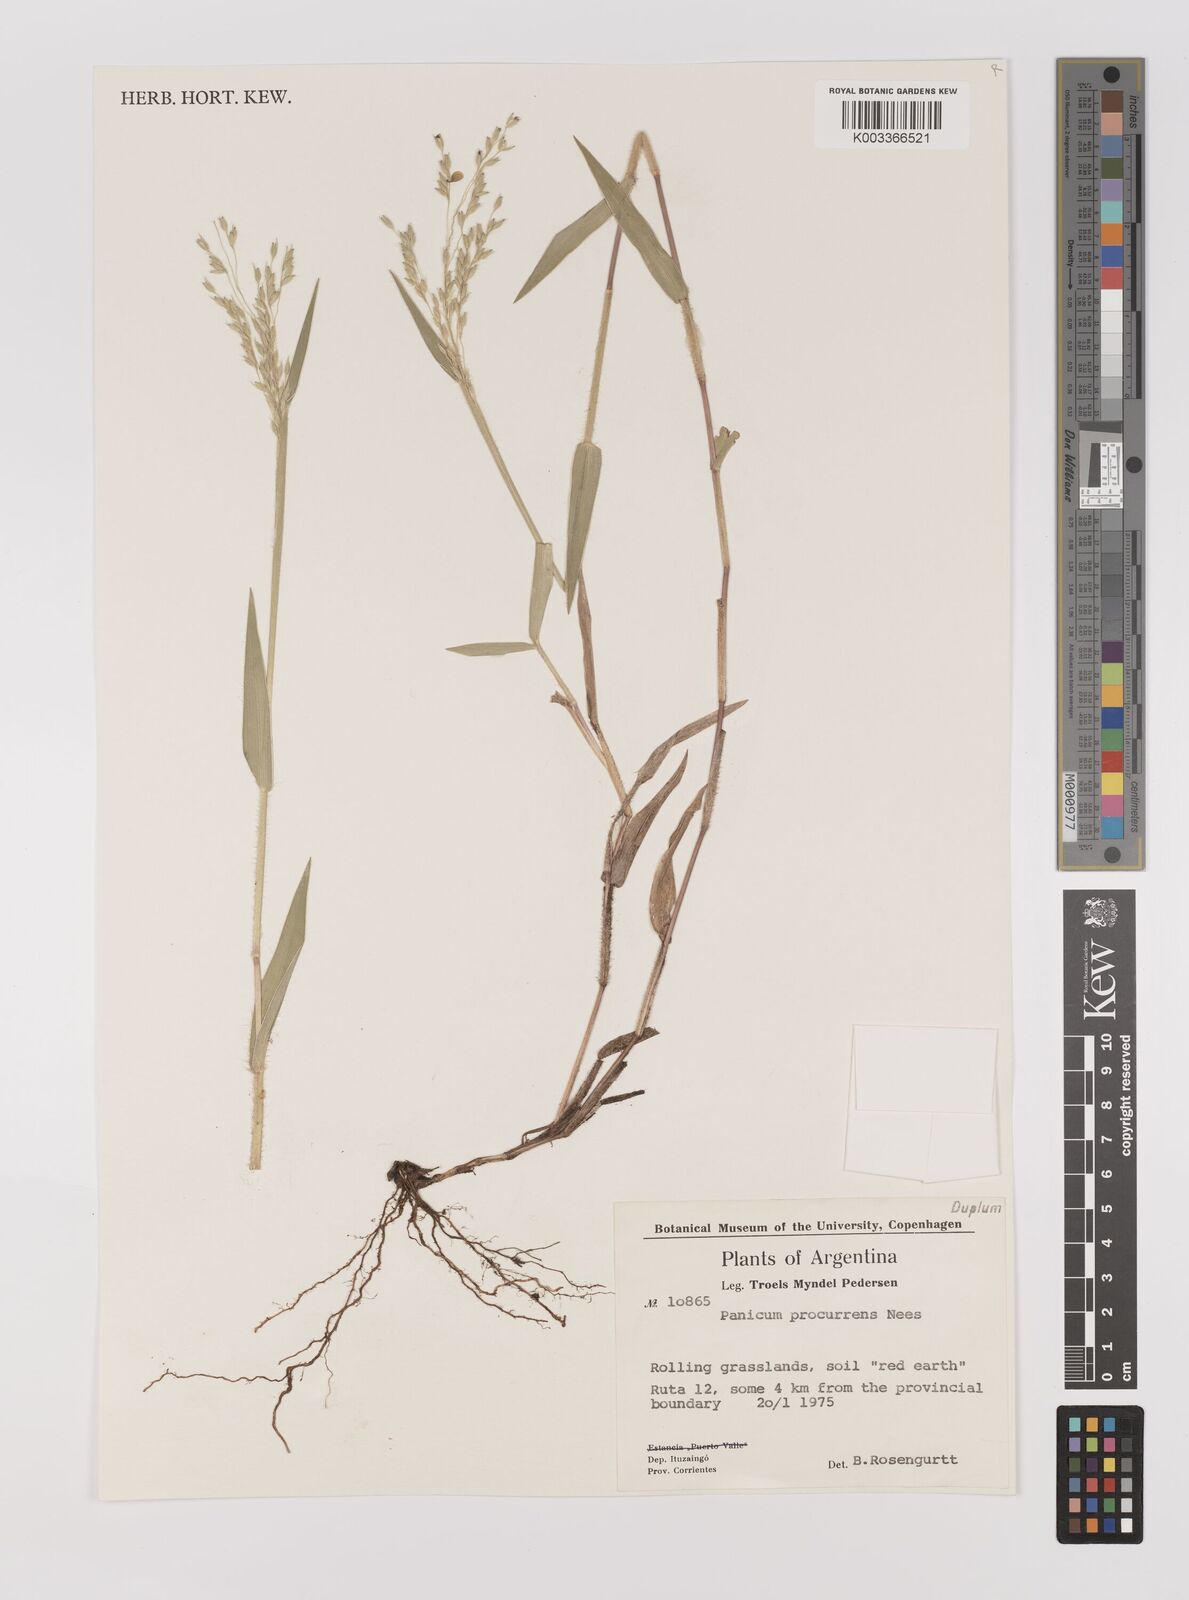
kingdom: Plantae
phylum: Tracheophyta
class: Liliopsida
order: Poales
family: Poaceae
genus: Oedochloa
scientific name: Oedochloa procurrens
